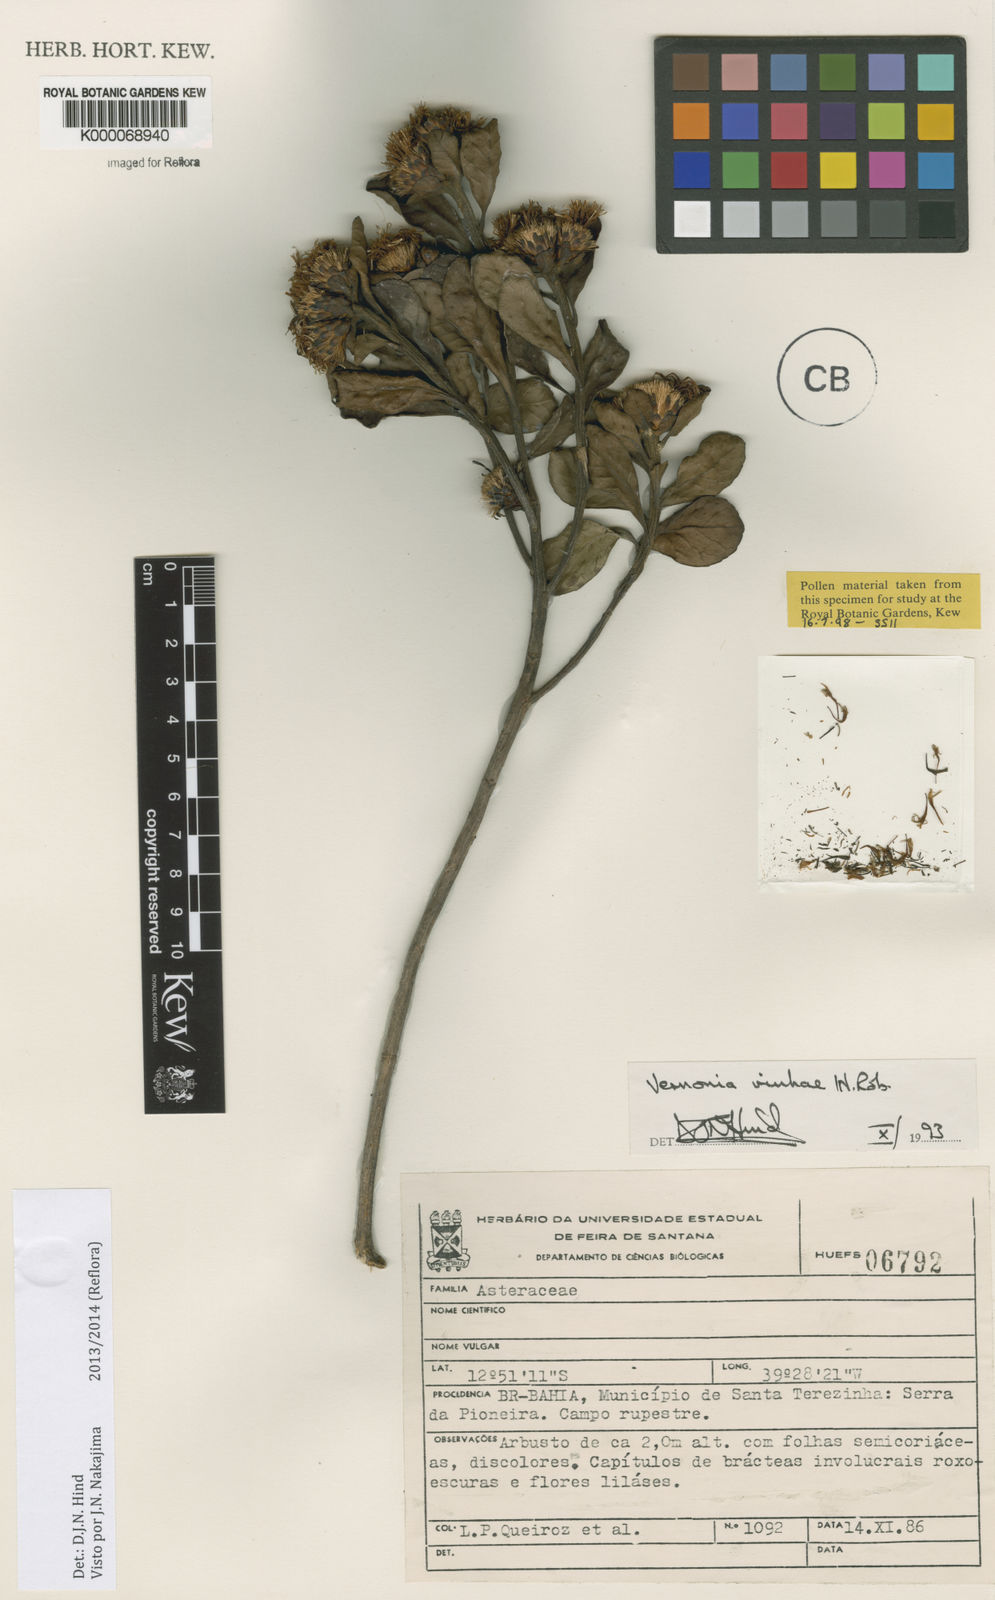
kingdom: Plantae
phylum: Tracheophyta
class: Magnoliopsida
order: Asterales
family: Asteraceae
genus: Vernonanthura
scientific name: Vernonanthura vinhae
